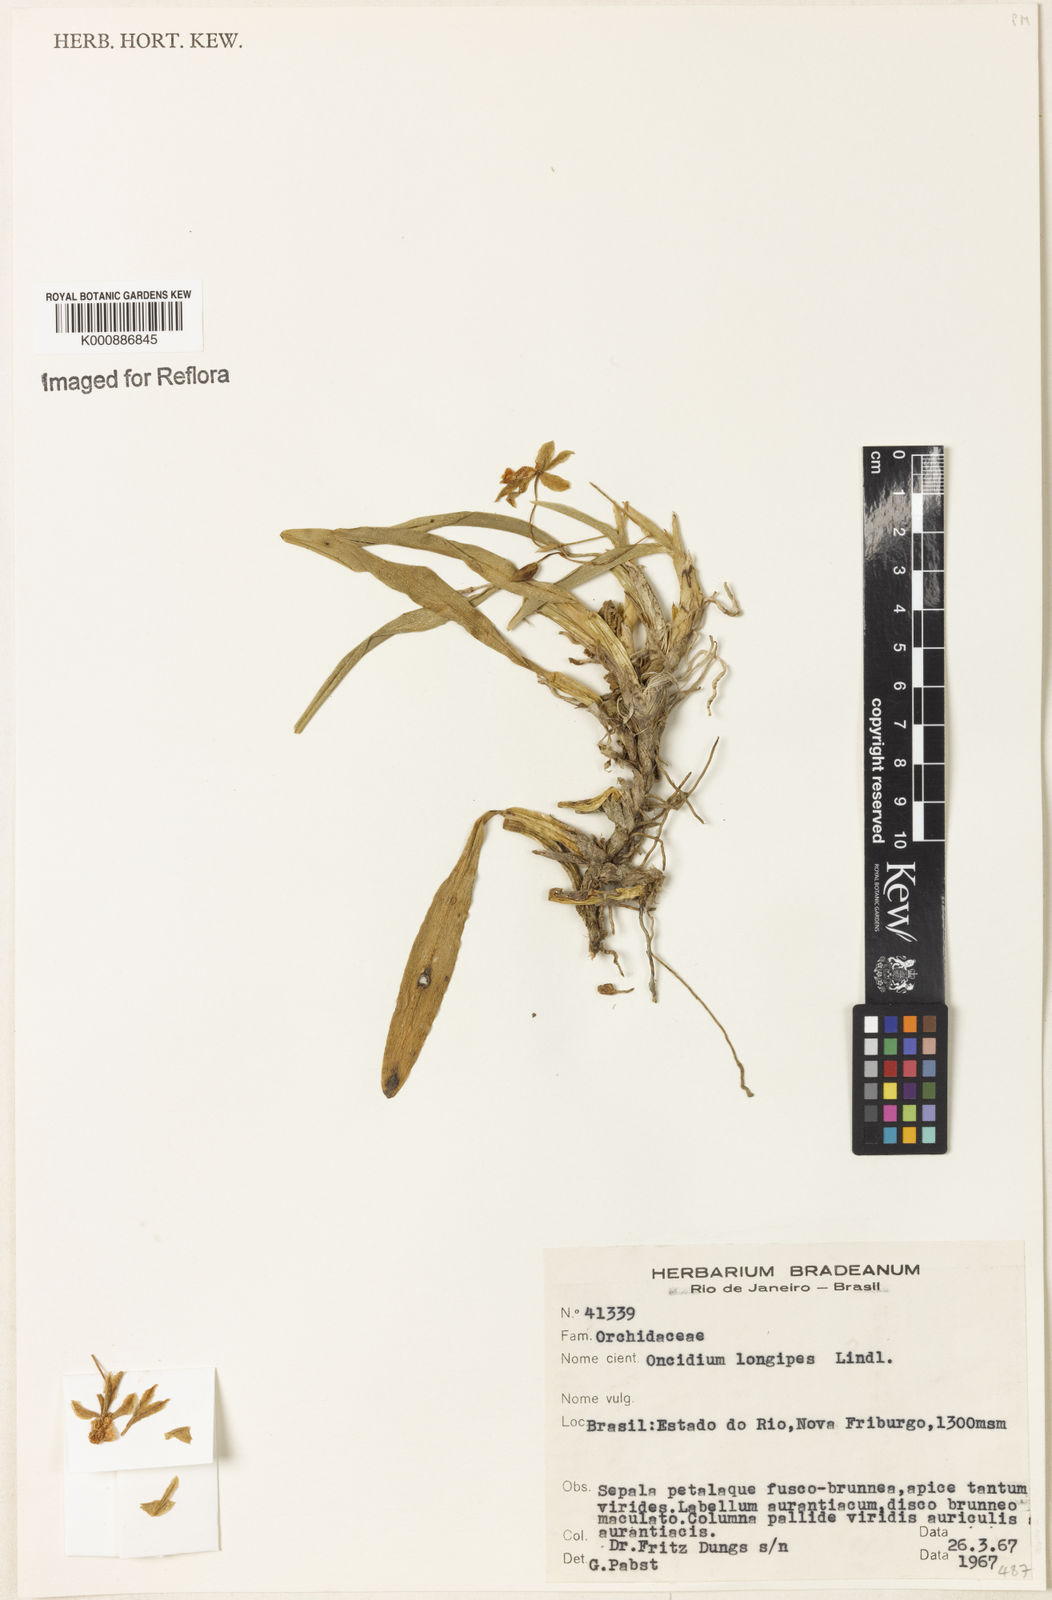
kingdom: Plantae
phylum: Tracheophyta
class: Liliopsida
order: Asparagales
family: Orchidaceae
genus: Gomesa
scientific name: Gomesa uniflora
